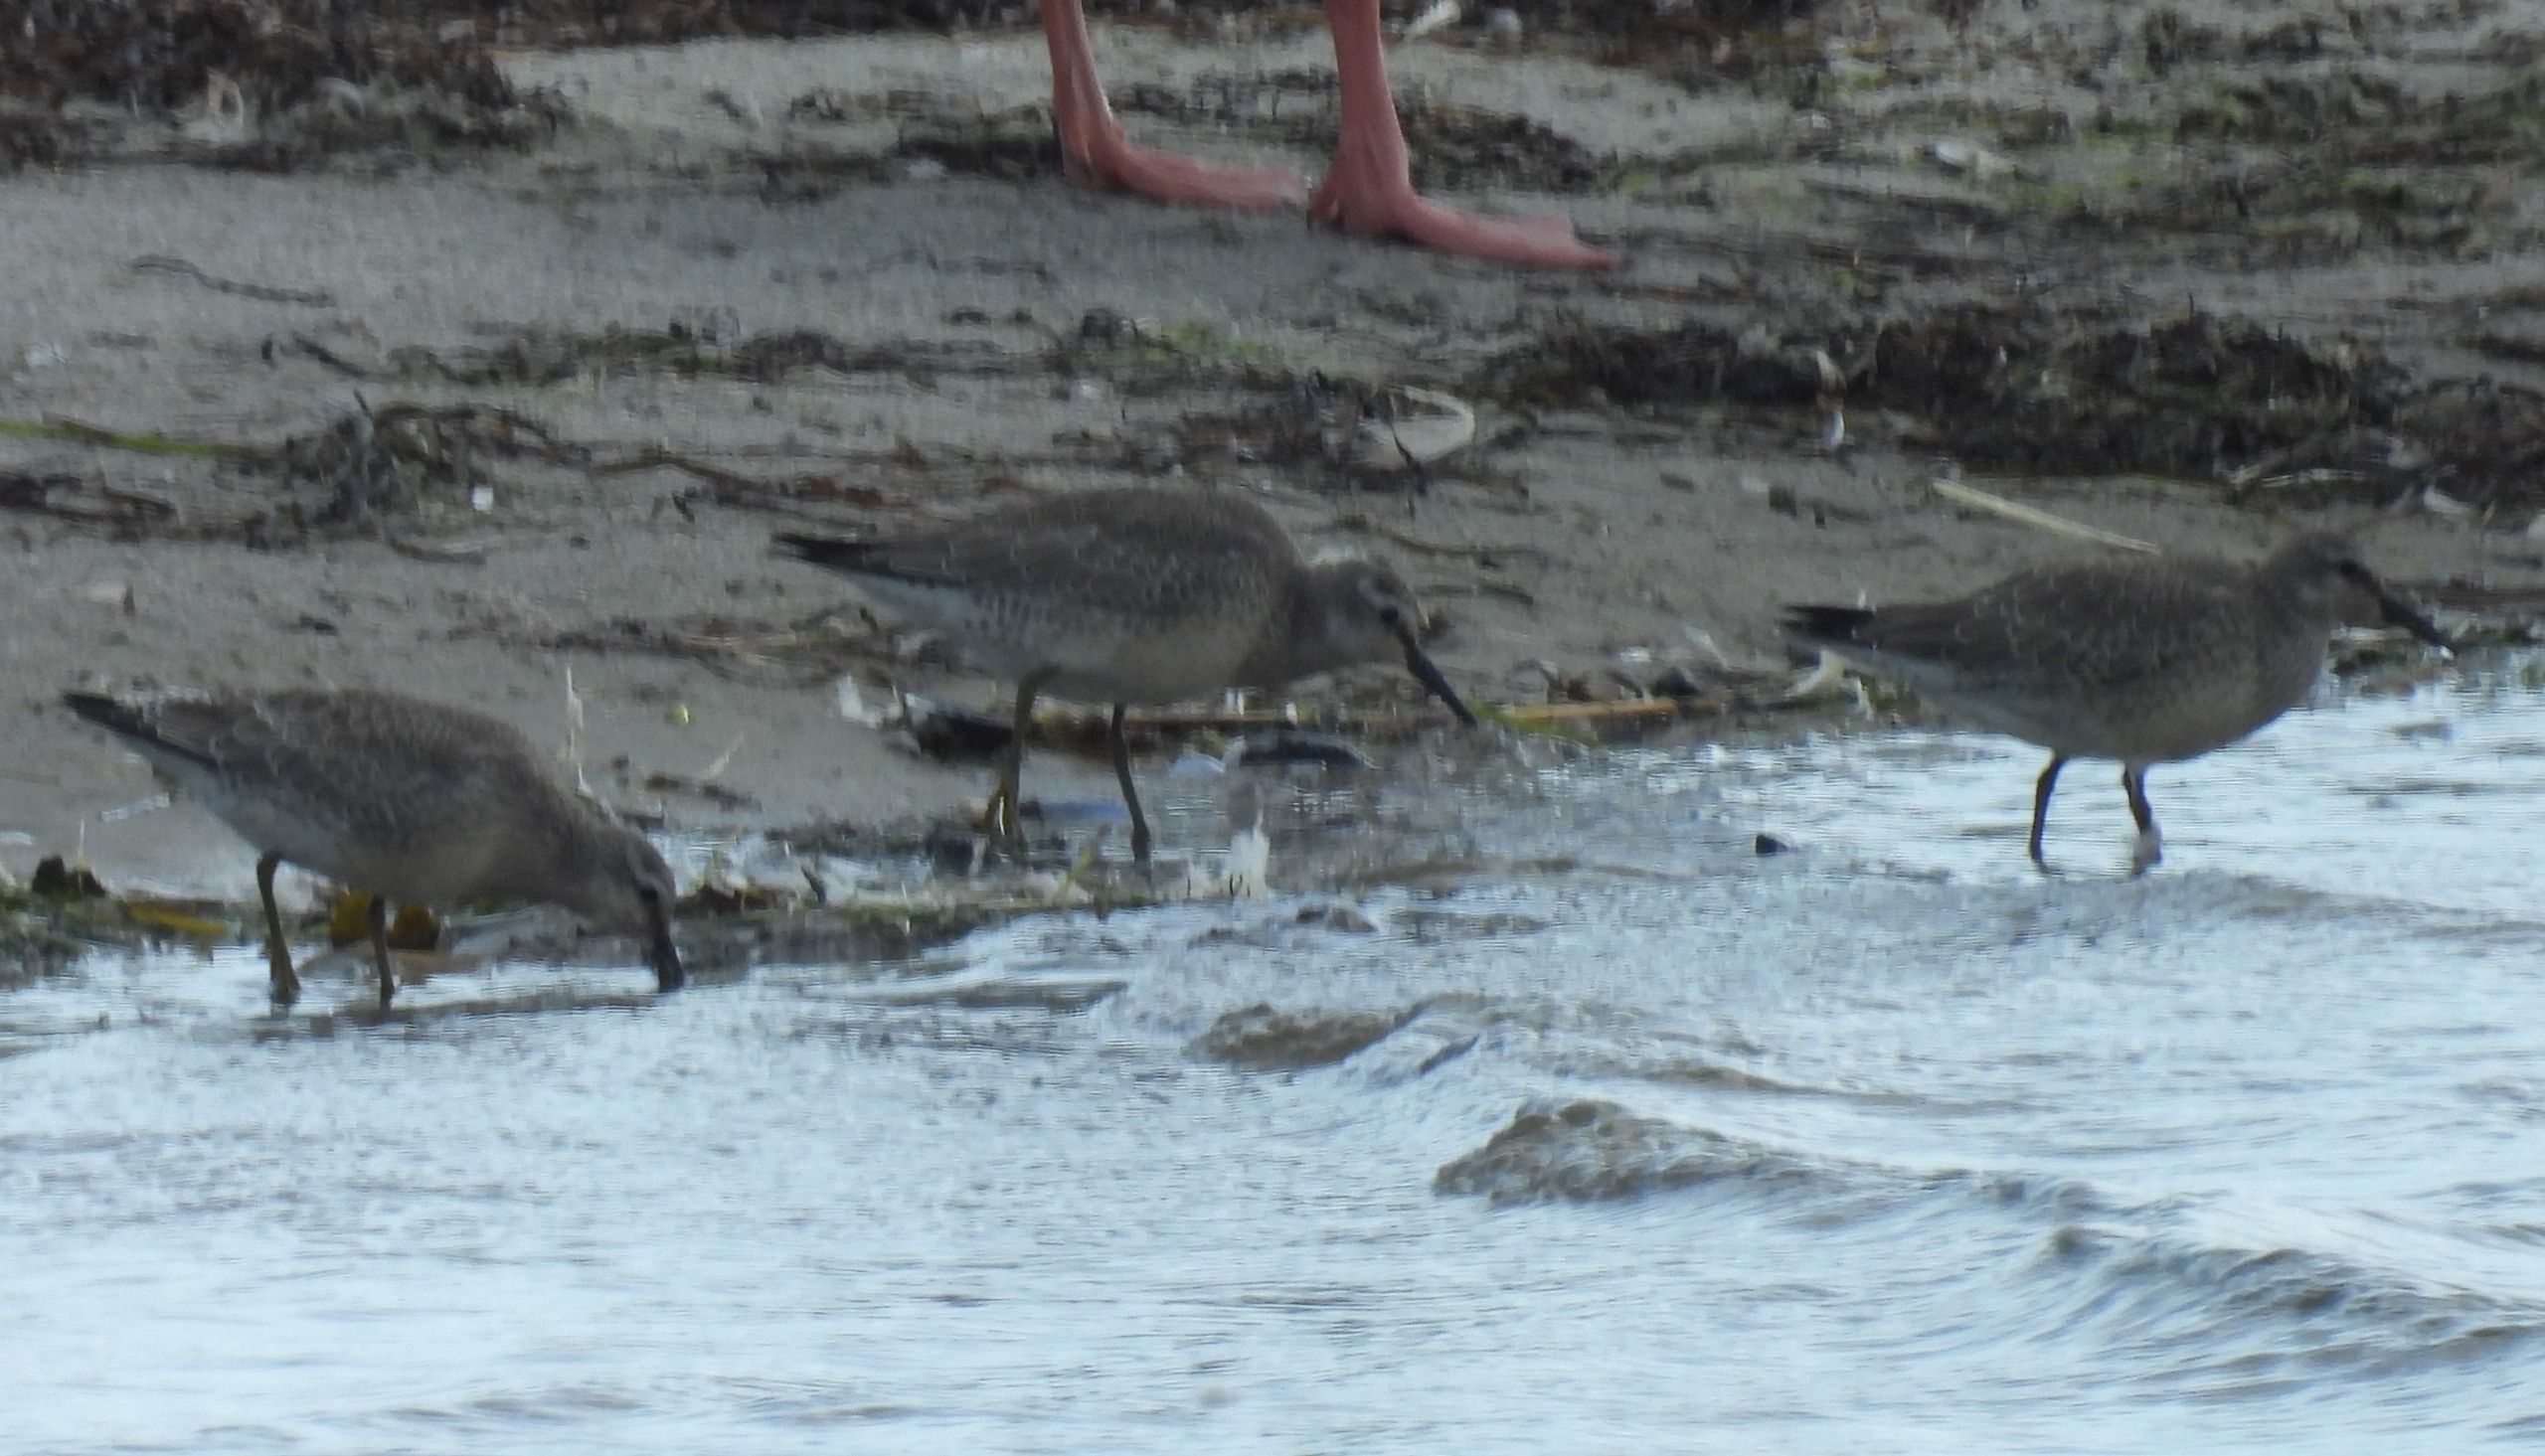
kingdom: Animalia
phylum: Chordata
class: Aves
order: Charadriiformes
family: Scolopacidae
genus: Calidris
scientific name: Calidris canutus
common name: Islandsk ryle
